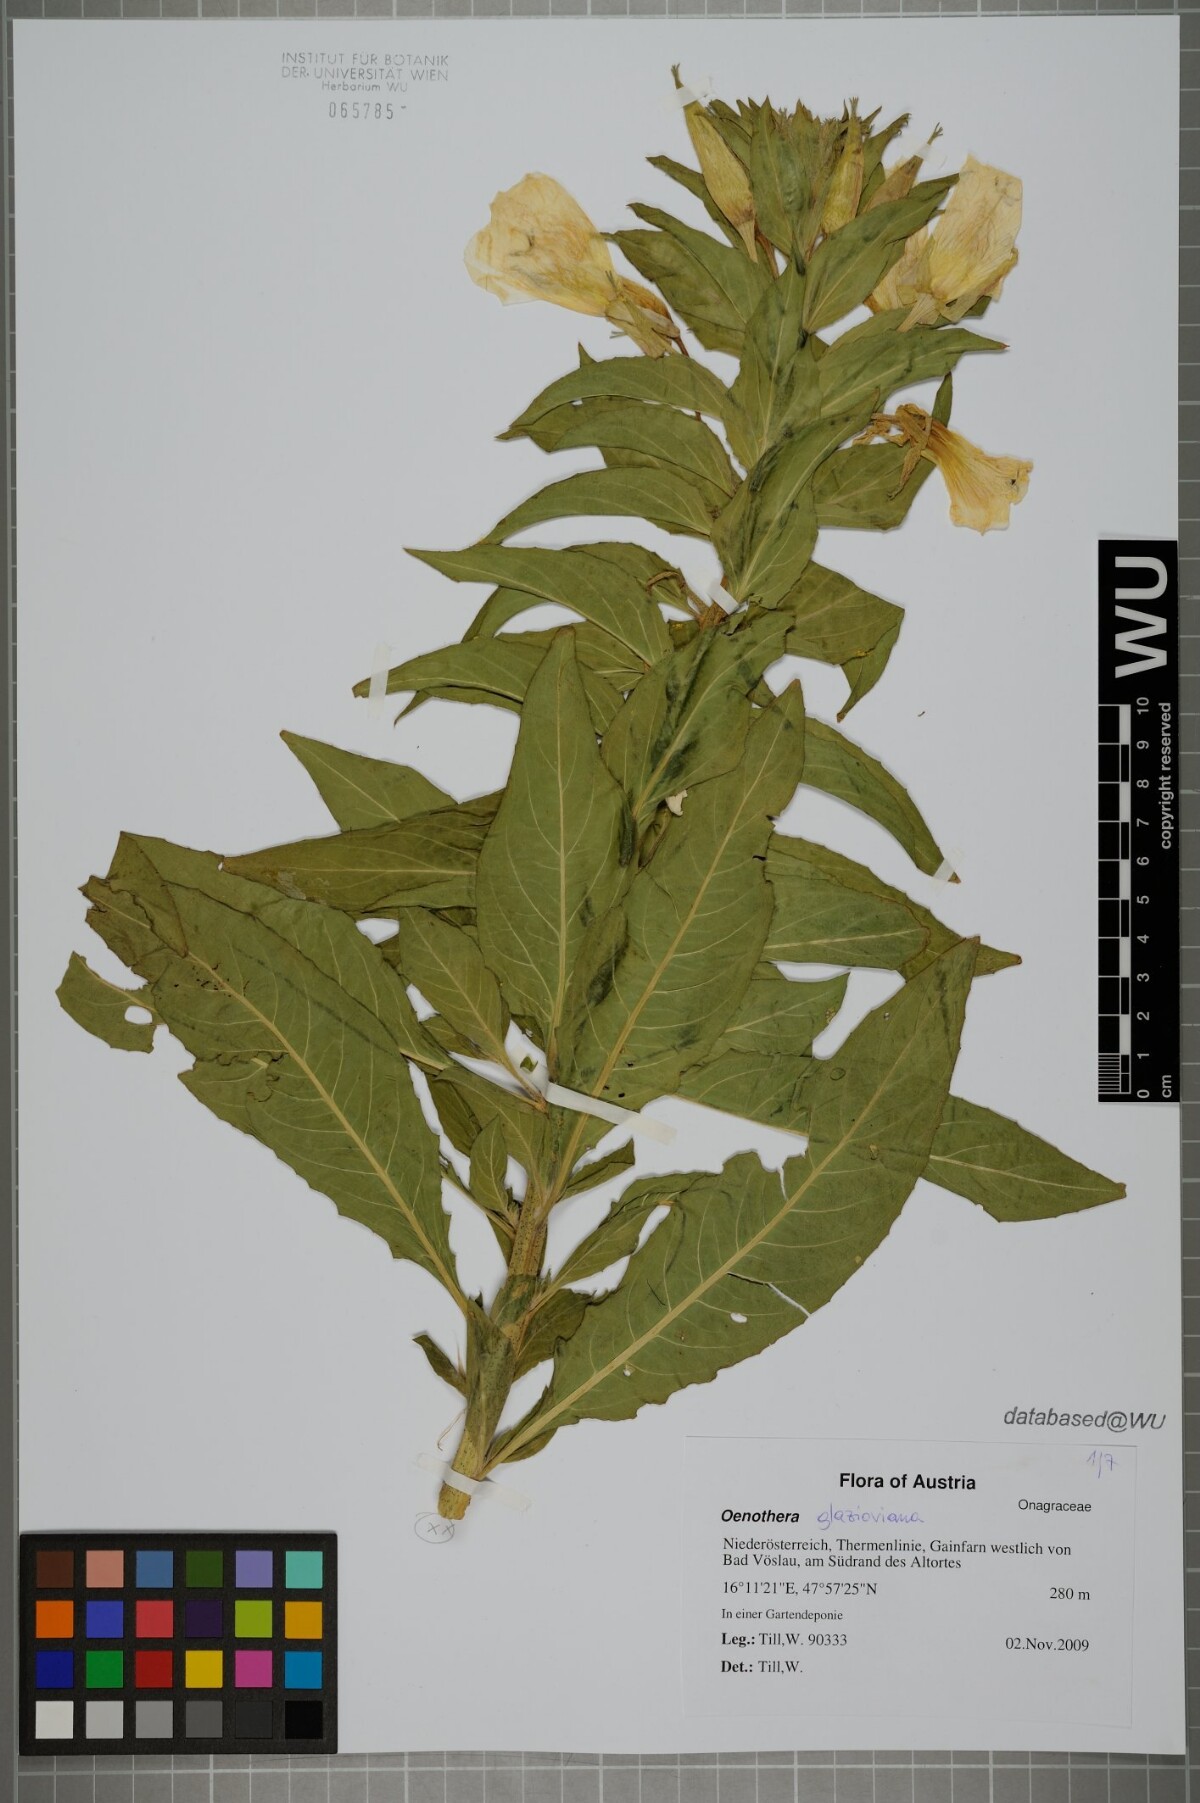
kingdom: Plantae
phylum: Tracheophyta
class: Magnoliopsida
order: Myrtales
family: Onagraceae
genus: Oenothera
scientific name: Oenothera glazioviana
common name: Large-flowered evening-primrose
